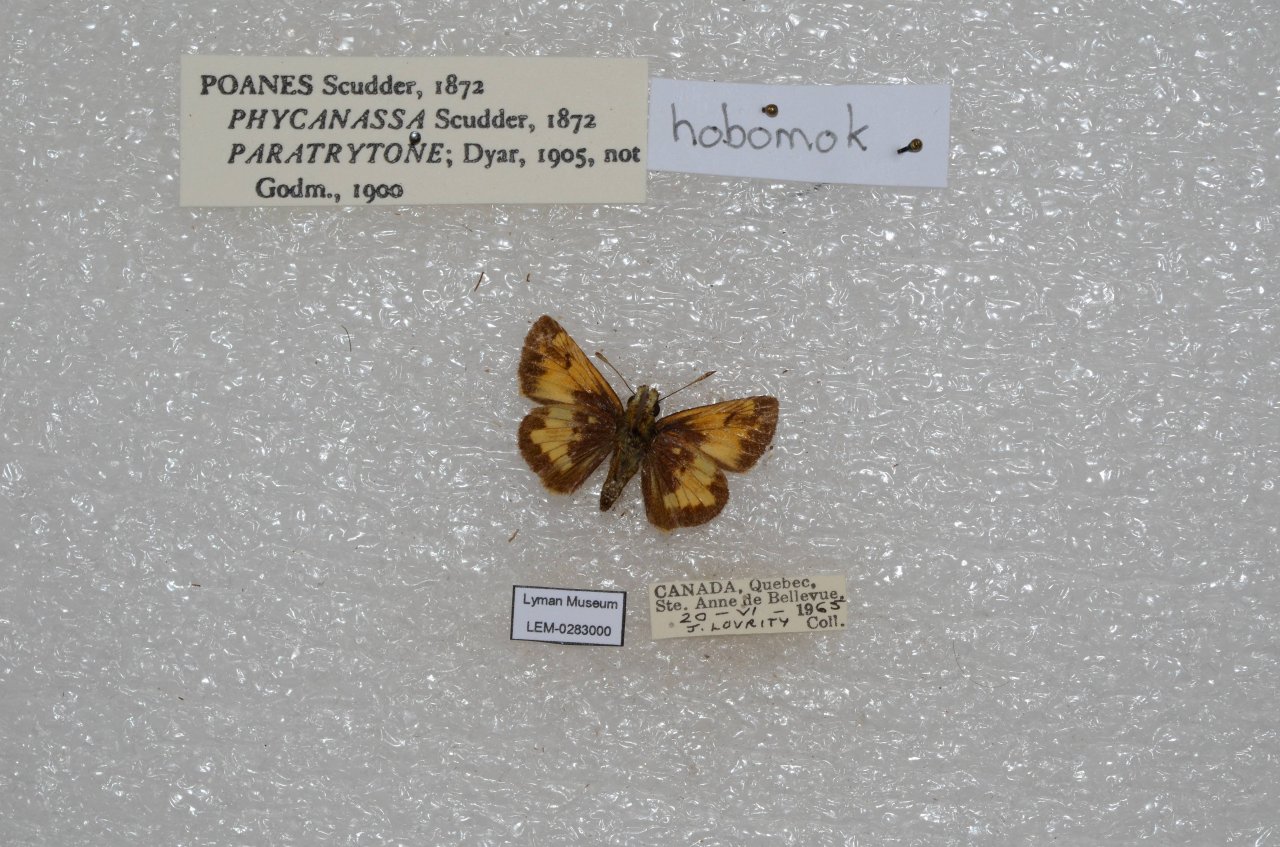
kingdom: Animalia
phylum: Arthropoda
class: Insecta
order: Lepidoptera
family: Hesperiidae
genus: Lon
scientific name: Lon hobomok
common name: Hobomok Skipper
